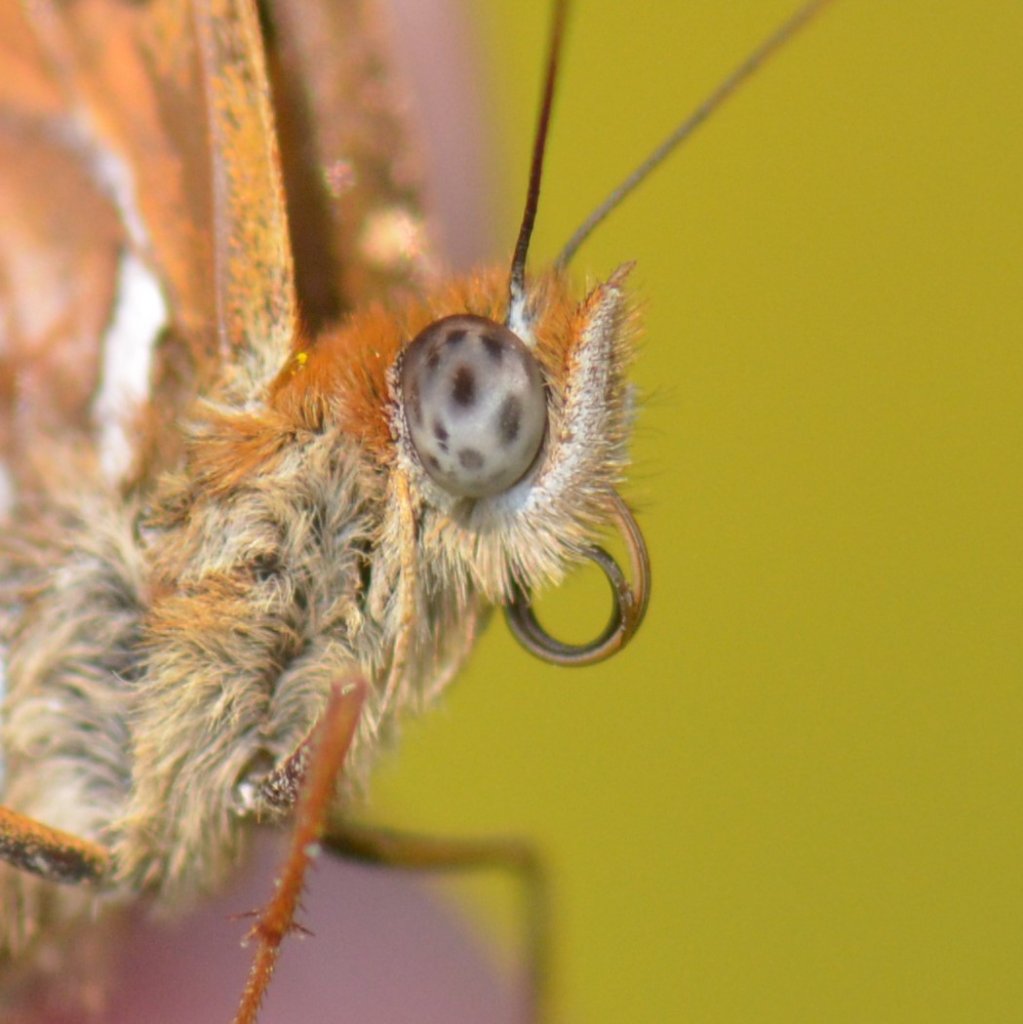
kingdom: Animalia
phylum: Arthropoda
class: Insecta
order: Lepidoptera
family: Nymphalidae
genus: Speyeria
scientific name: Speyeria atlantis
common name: Atlantis Fritillary
